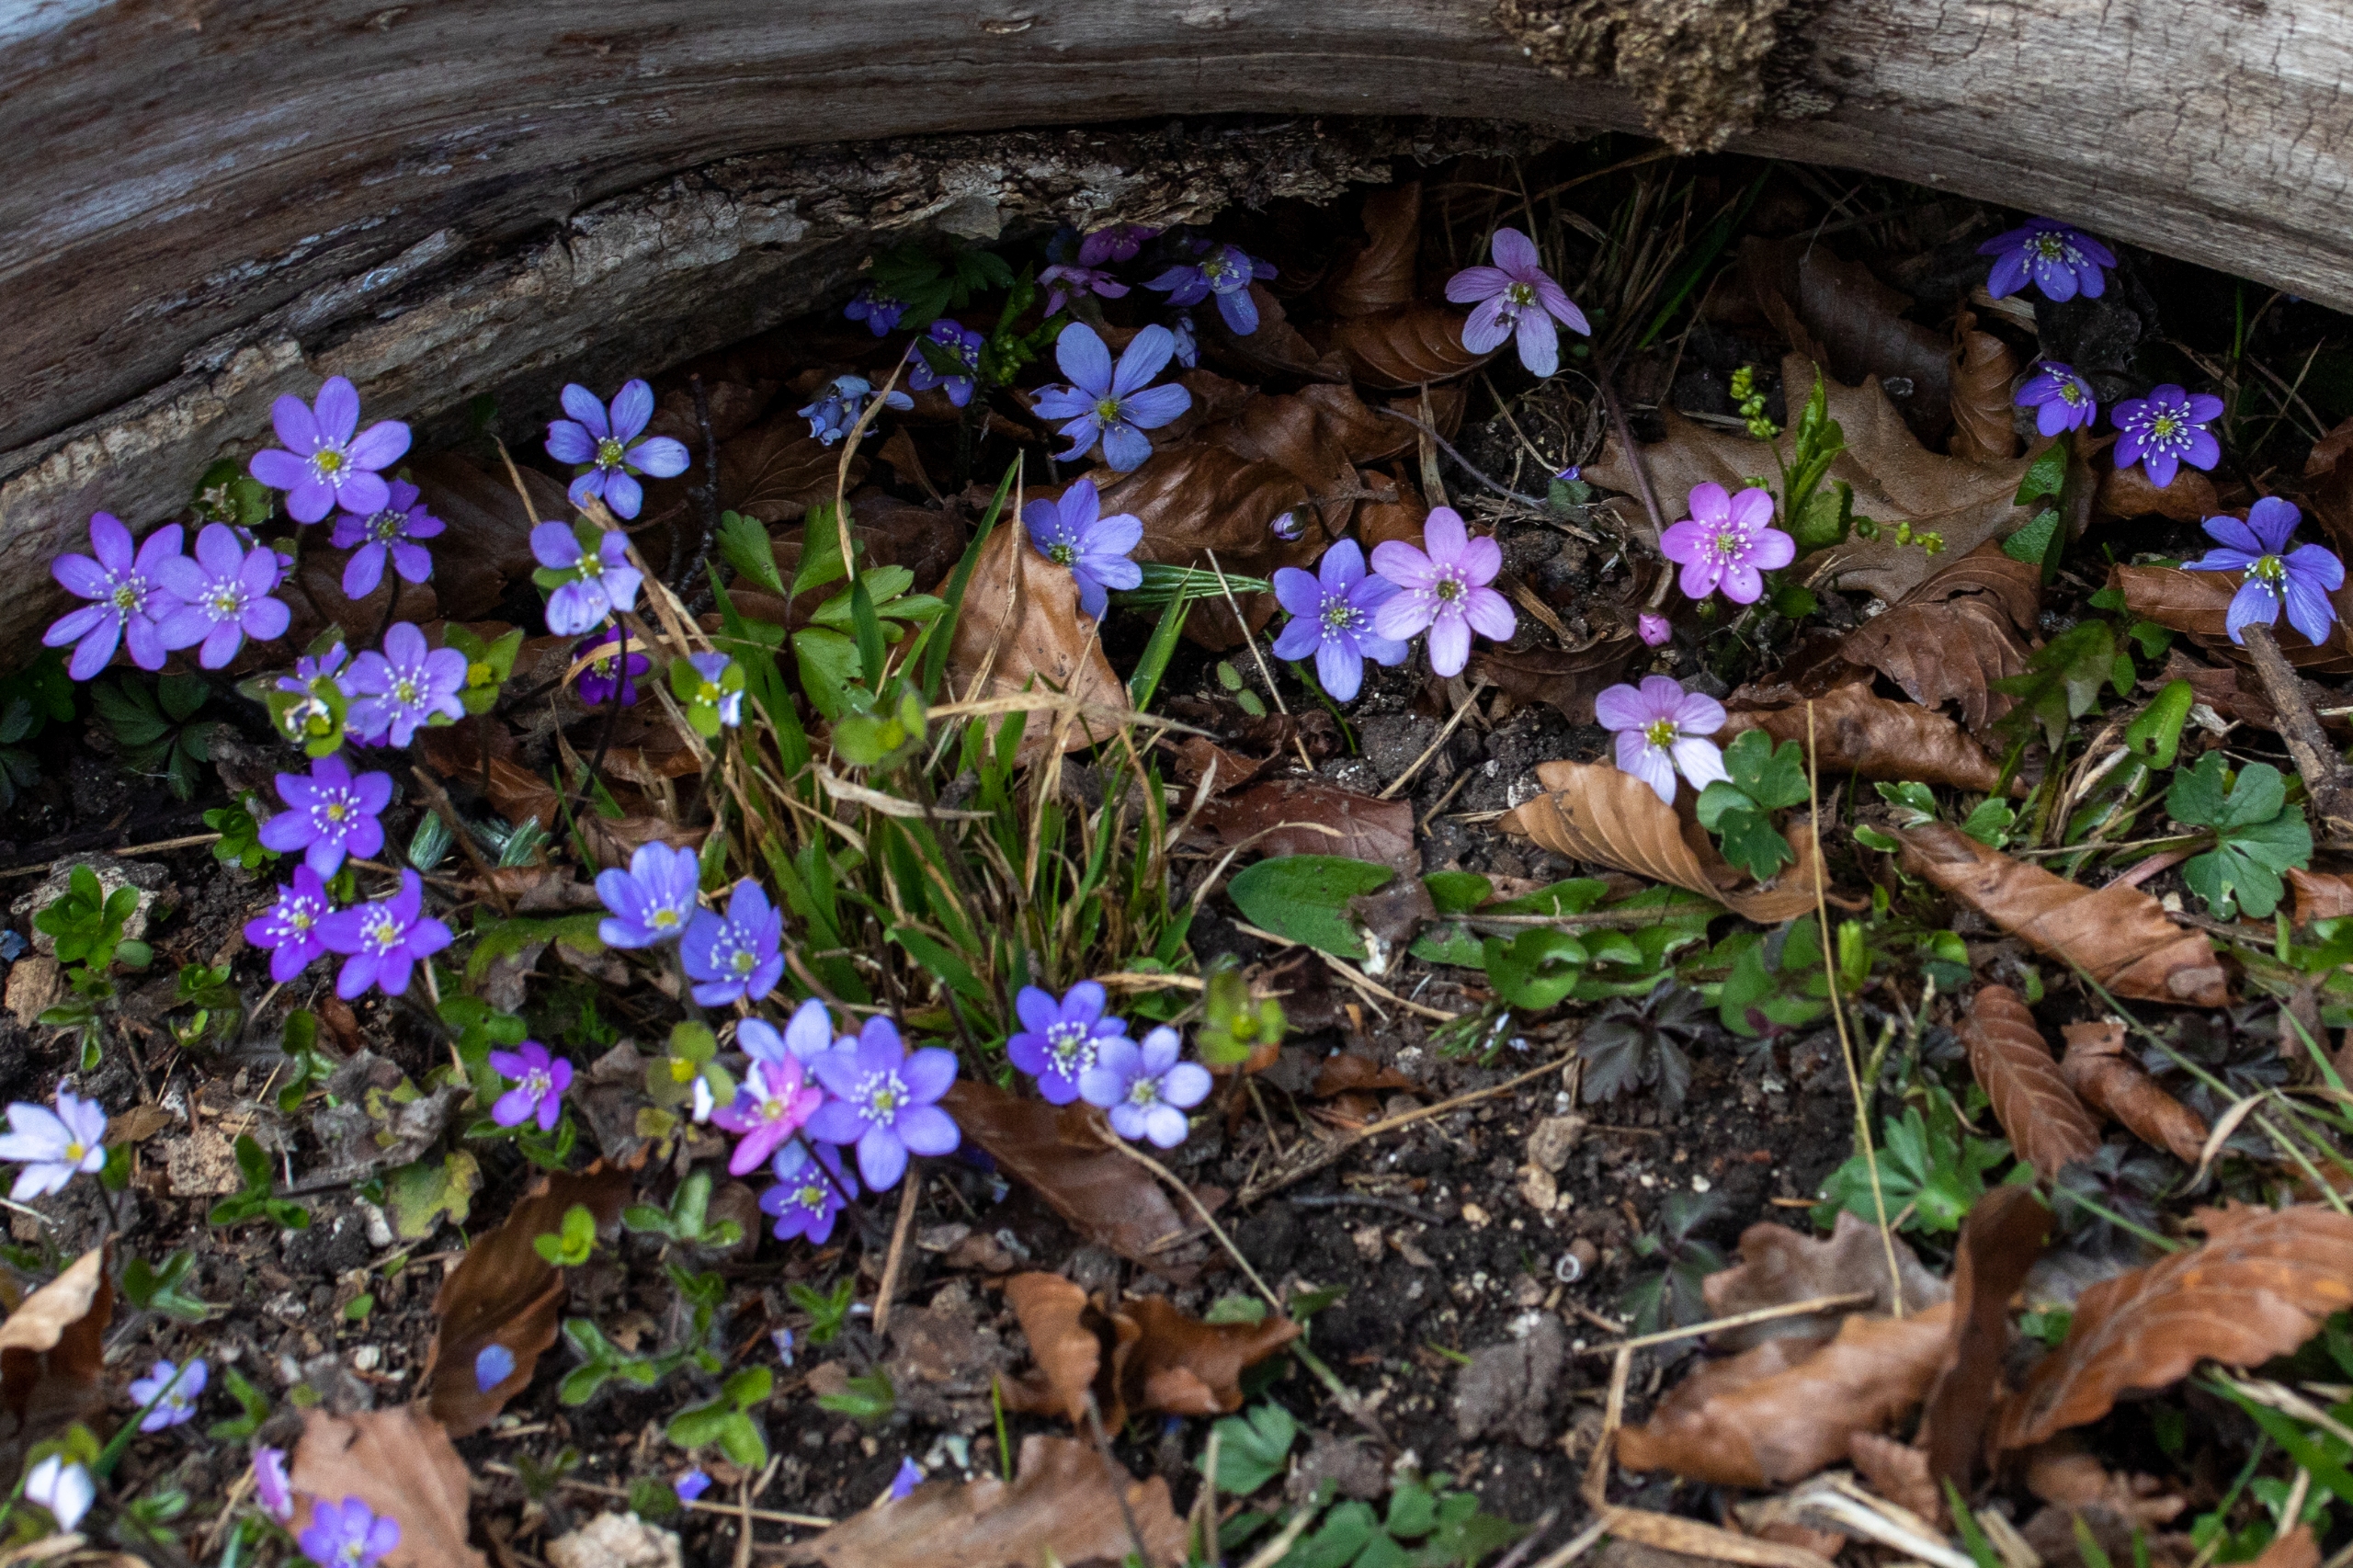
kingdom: Plantae
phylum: Tracheophyta
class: Magnoliopsida
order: Ranunculales
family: Ranunculaceae
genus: Hepatica
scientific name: Hepatica nobilis
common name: Blå anemone
